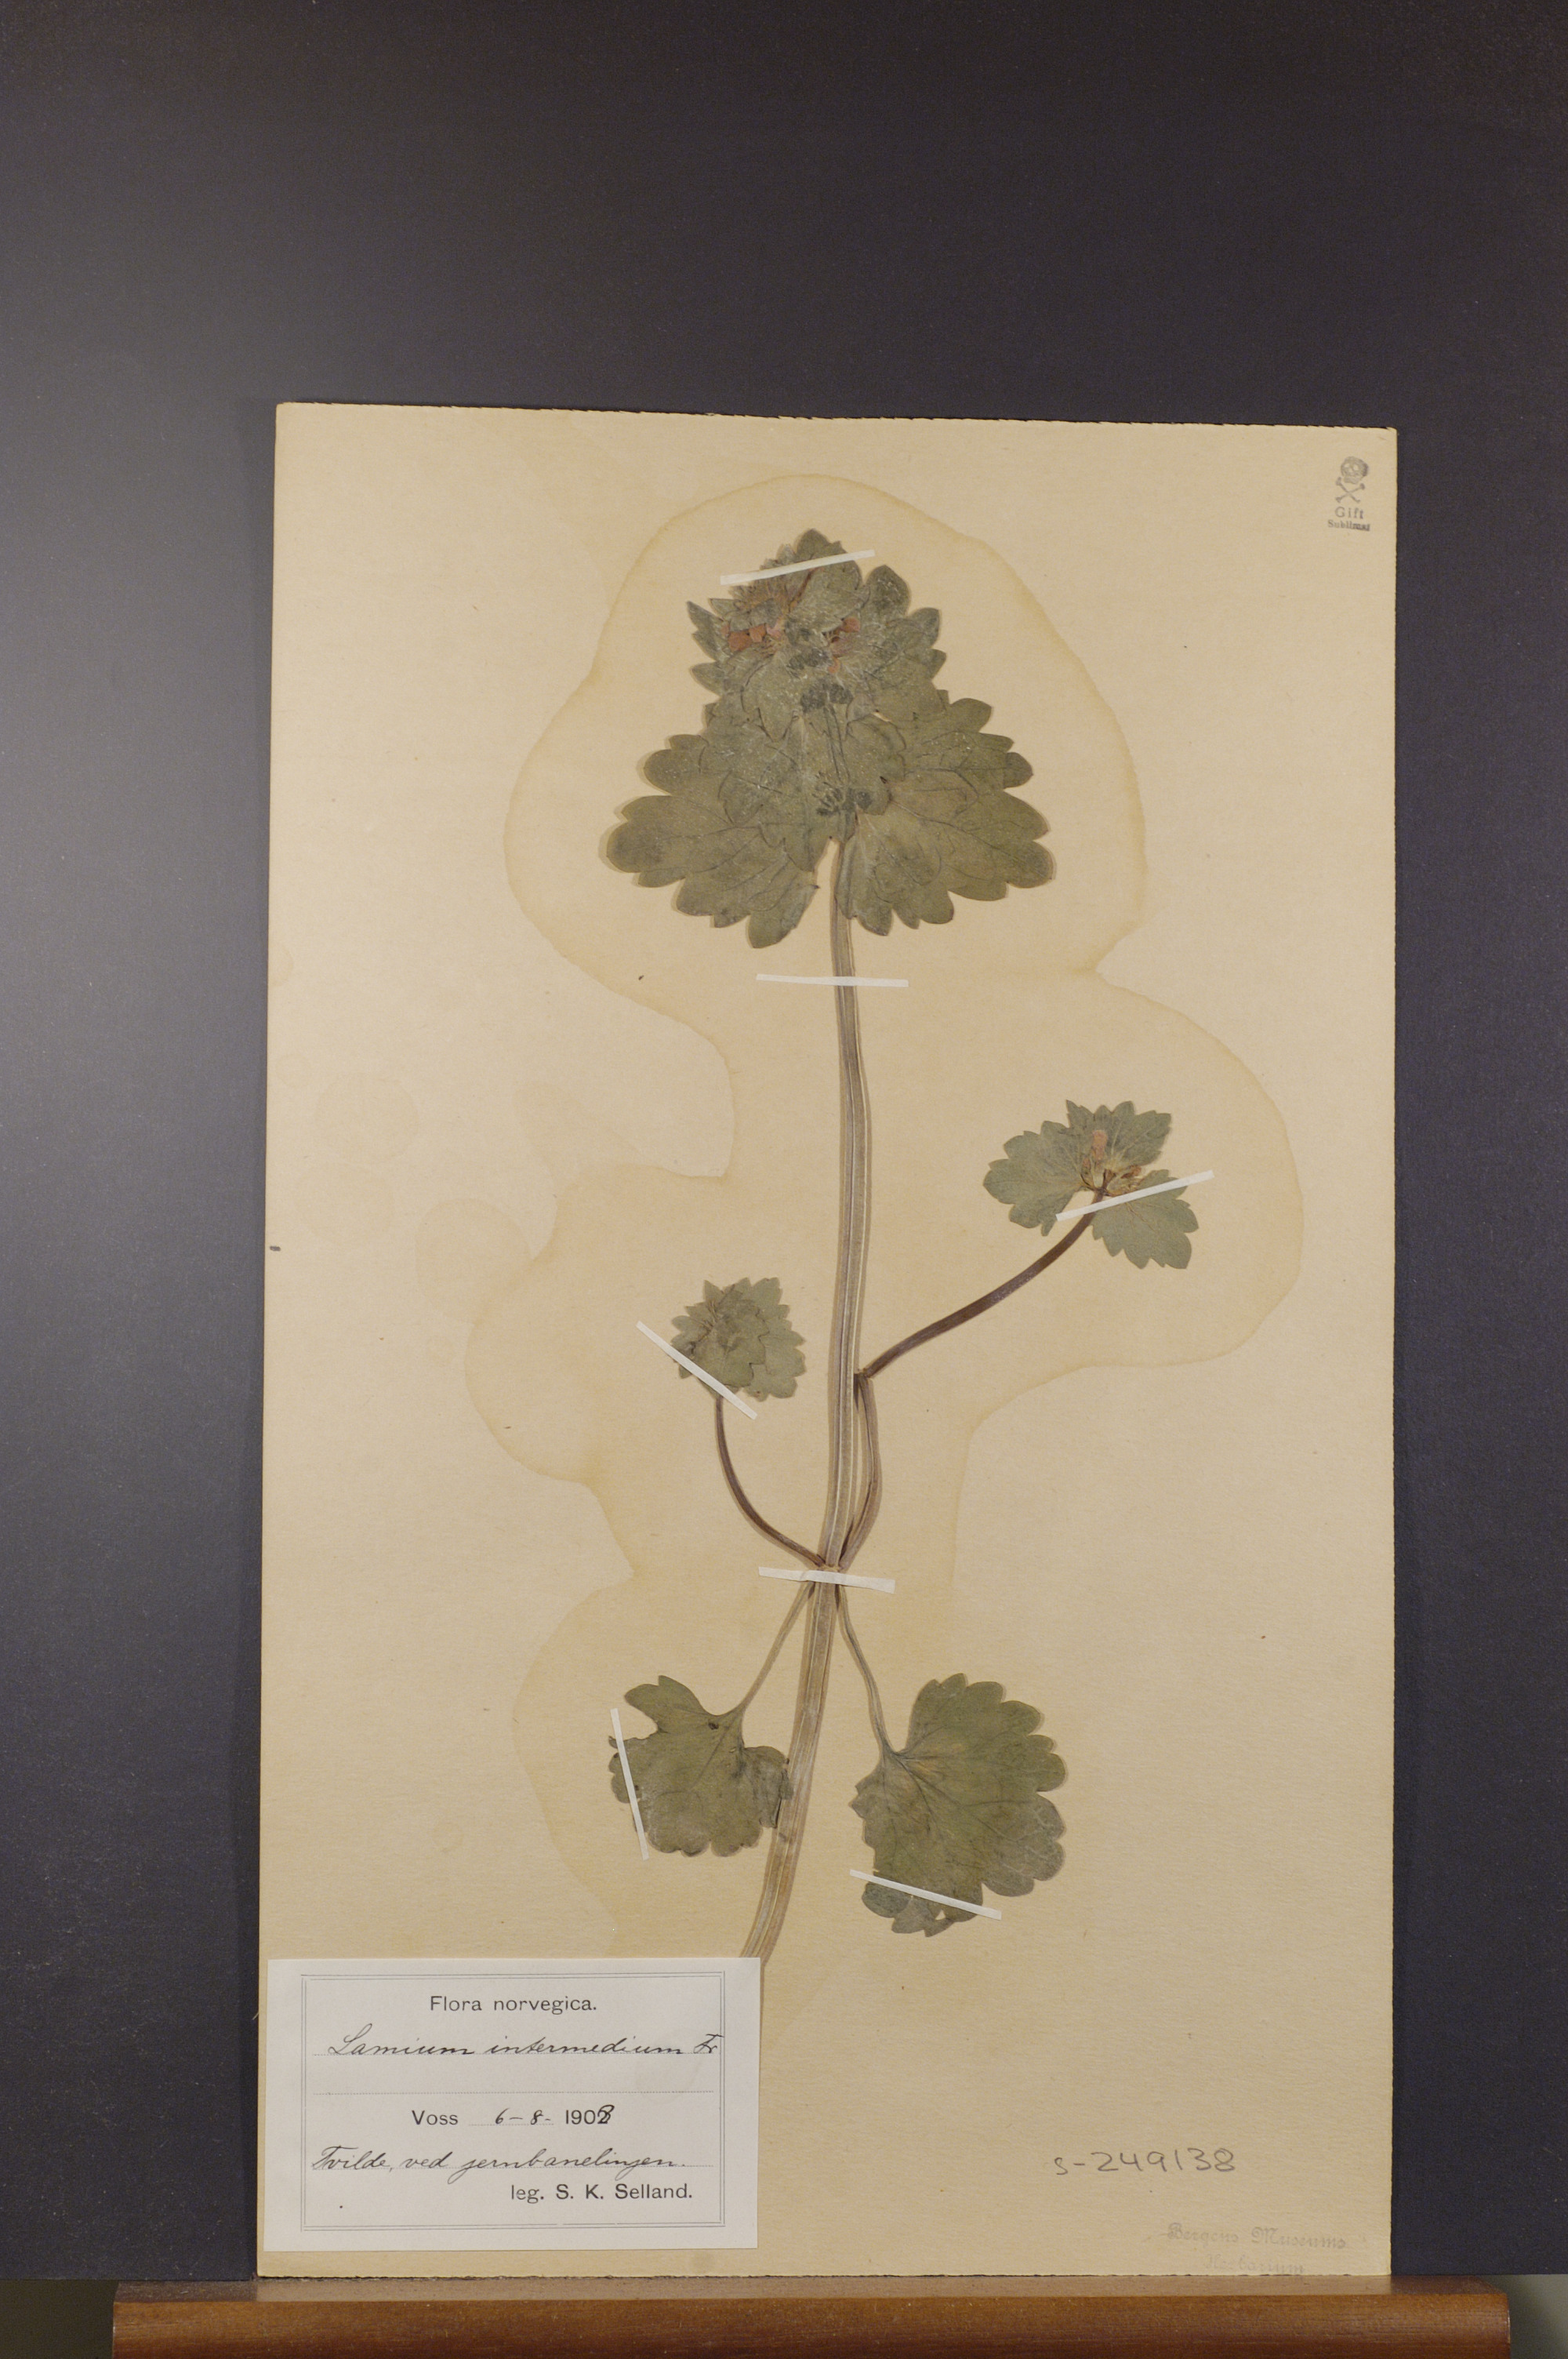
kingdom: Plantae
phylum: Tracheophyta
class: Magnoliopsida
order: Lamiales
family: Lamiaceae
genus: Lamium
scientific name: Lamium confertum
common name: Northern dead-nettle
